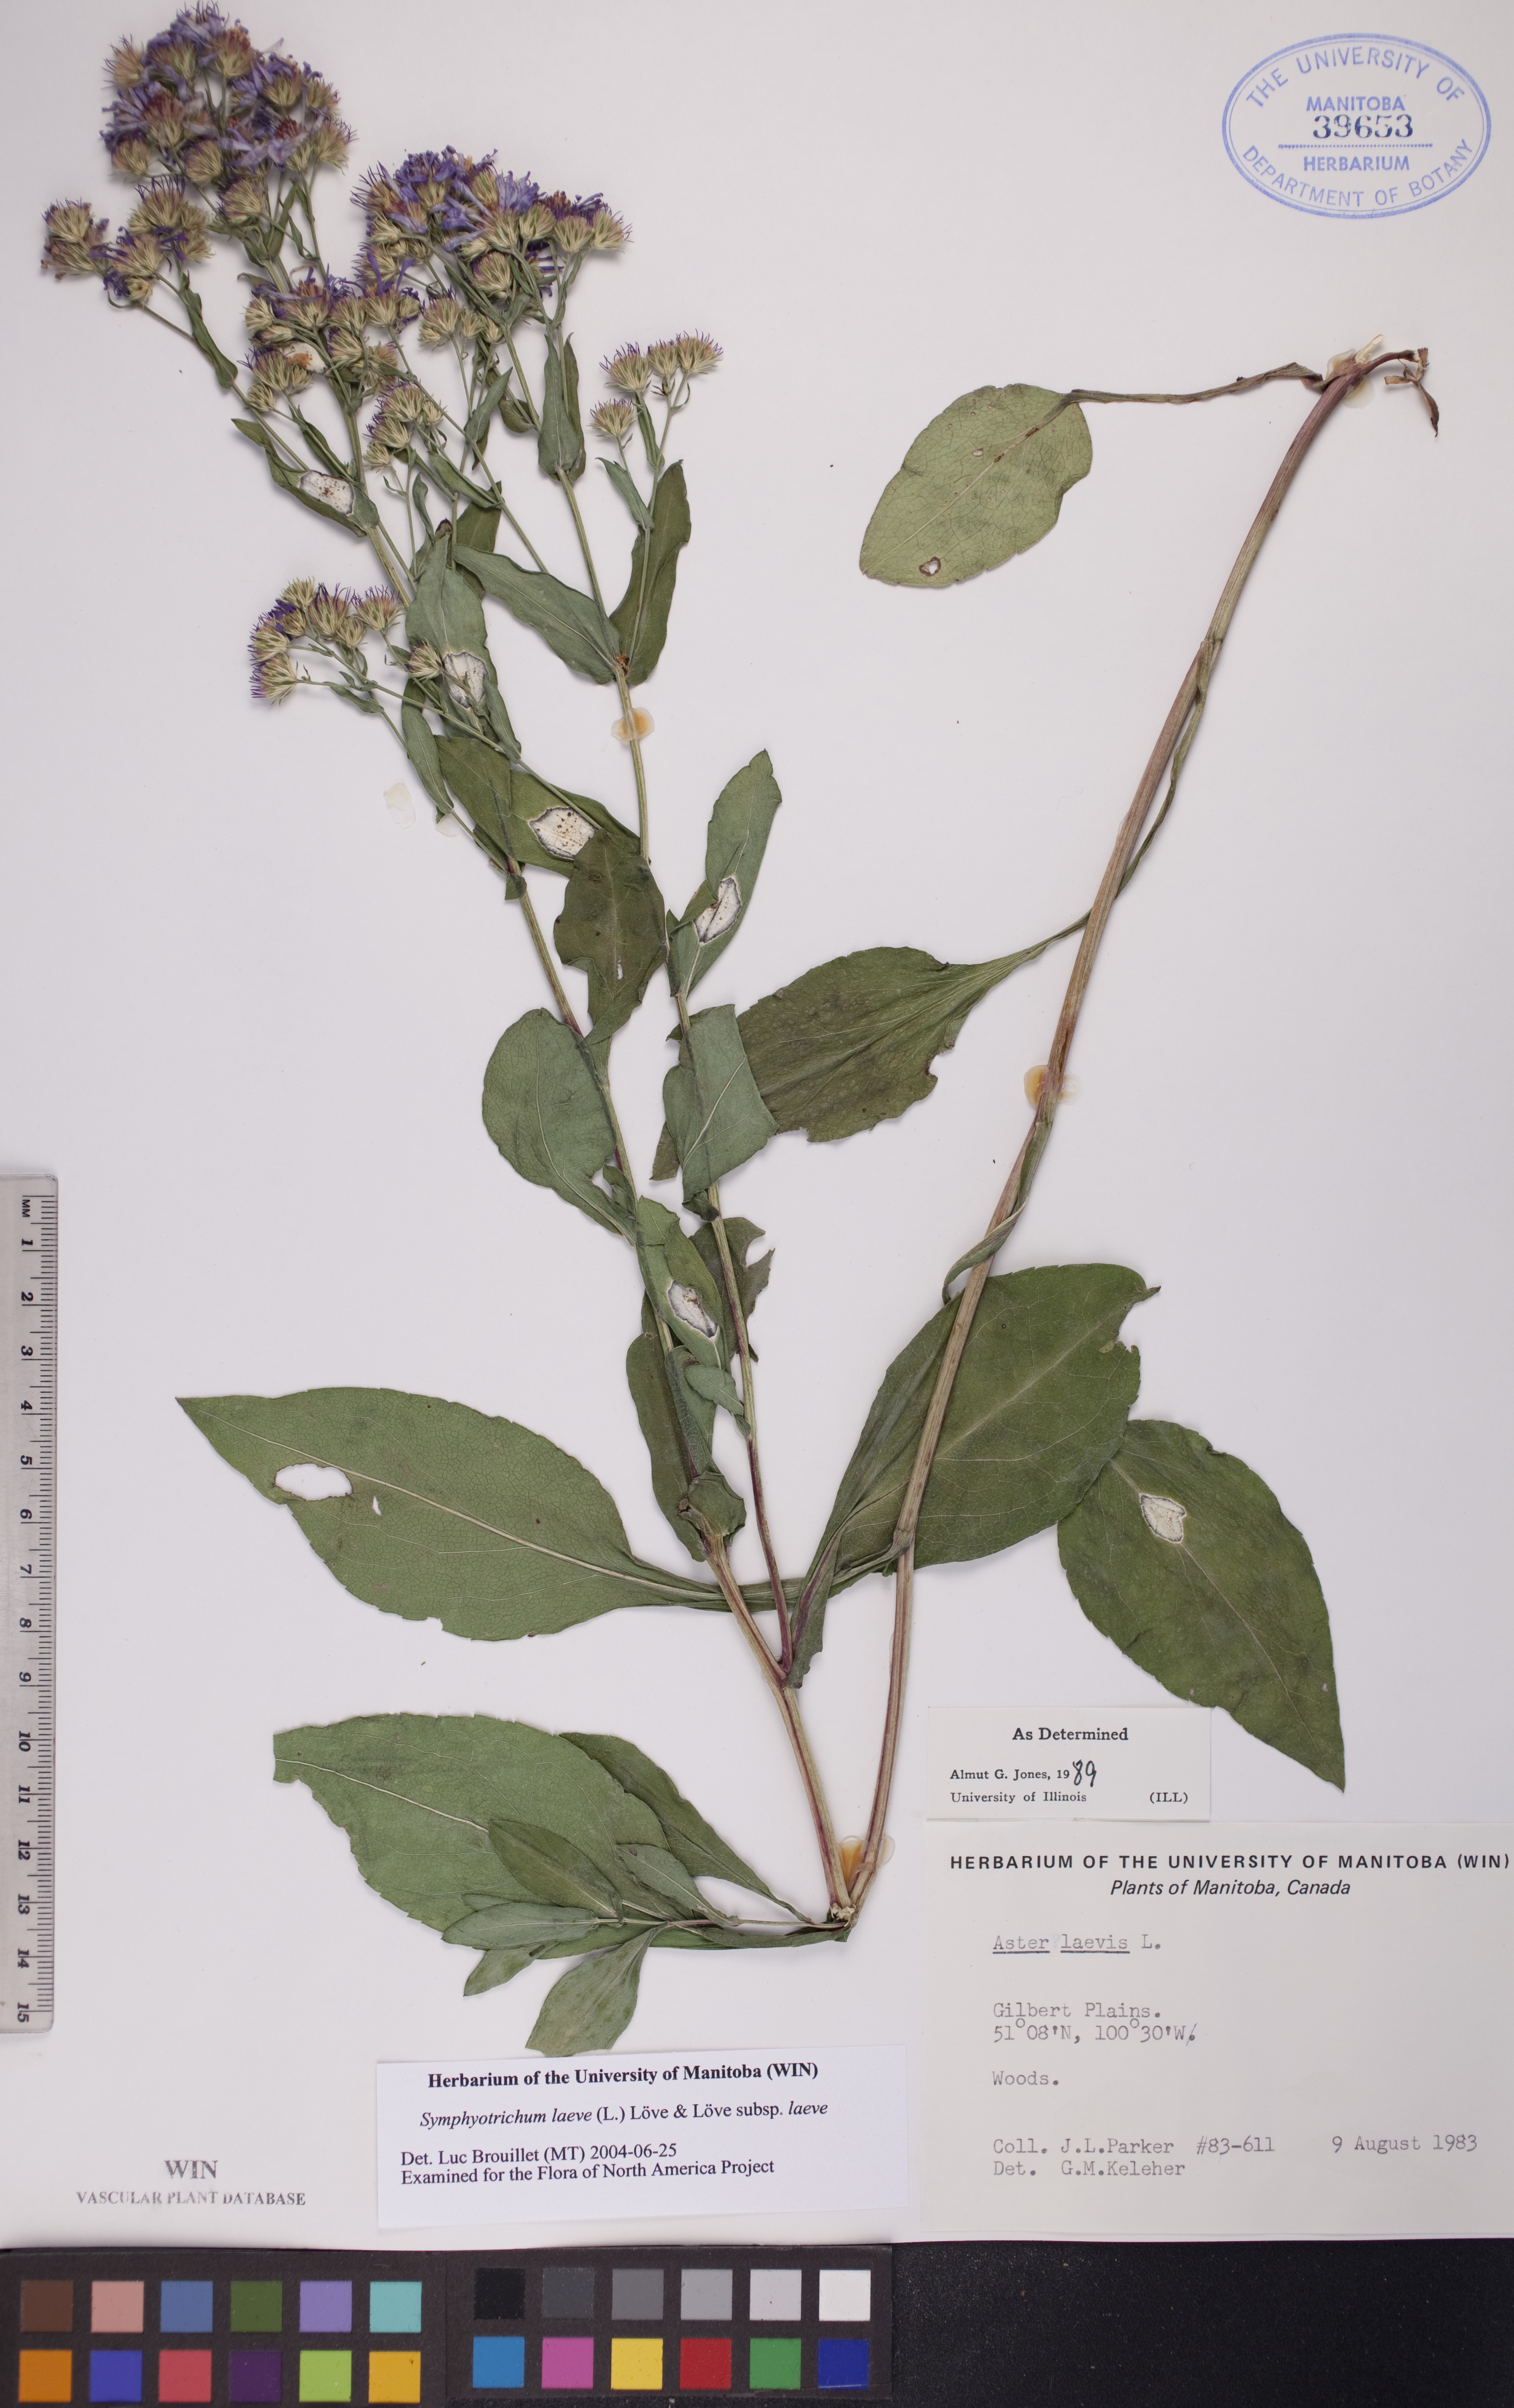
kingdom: Plantae
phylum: Tracheophyta
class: Magnoliopsida
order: Asterales
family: Asteraceae
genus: Symphyotrichum
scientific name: Symphyotrichum laeve
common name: Glaucous aster
